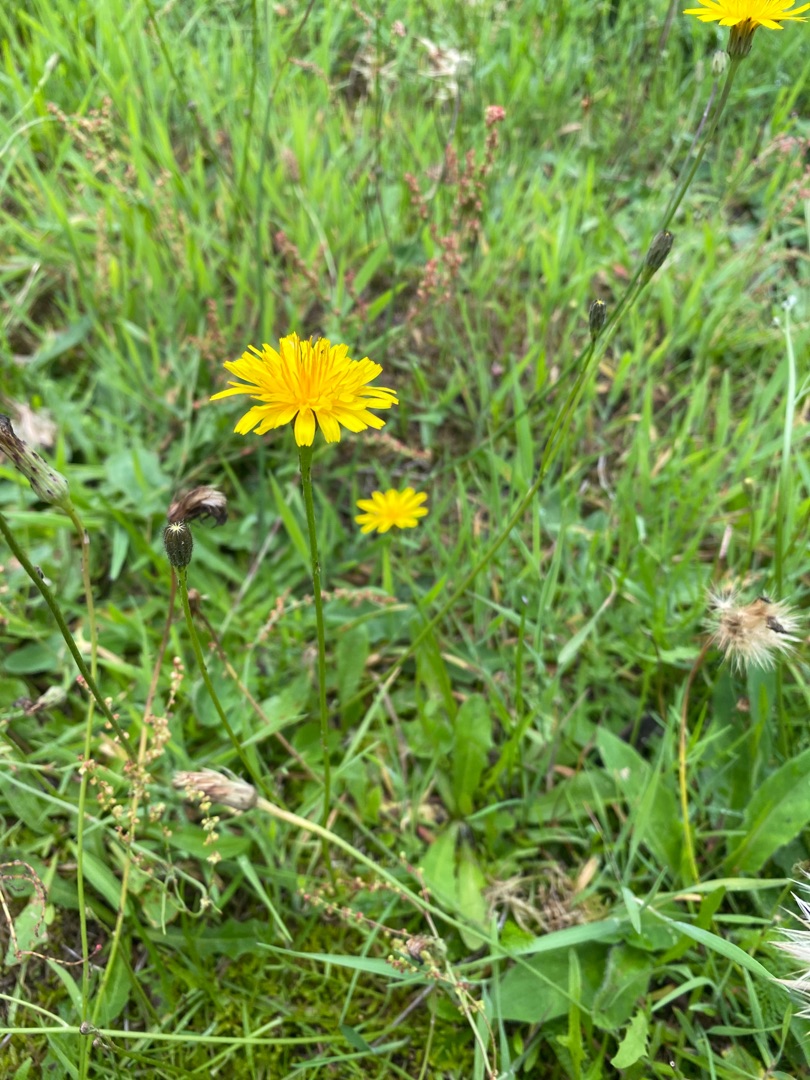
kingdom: Plantae
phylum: Tracheophyta
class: Magnoliopsida
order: Asterales
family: Asteraceae
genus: Hypochaeris
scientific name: Hypochaeris radicata
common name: Almindelig kongepen
